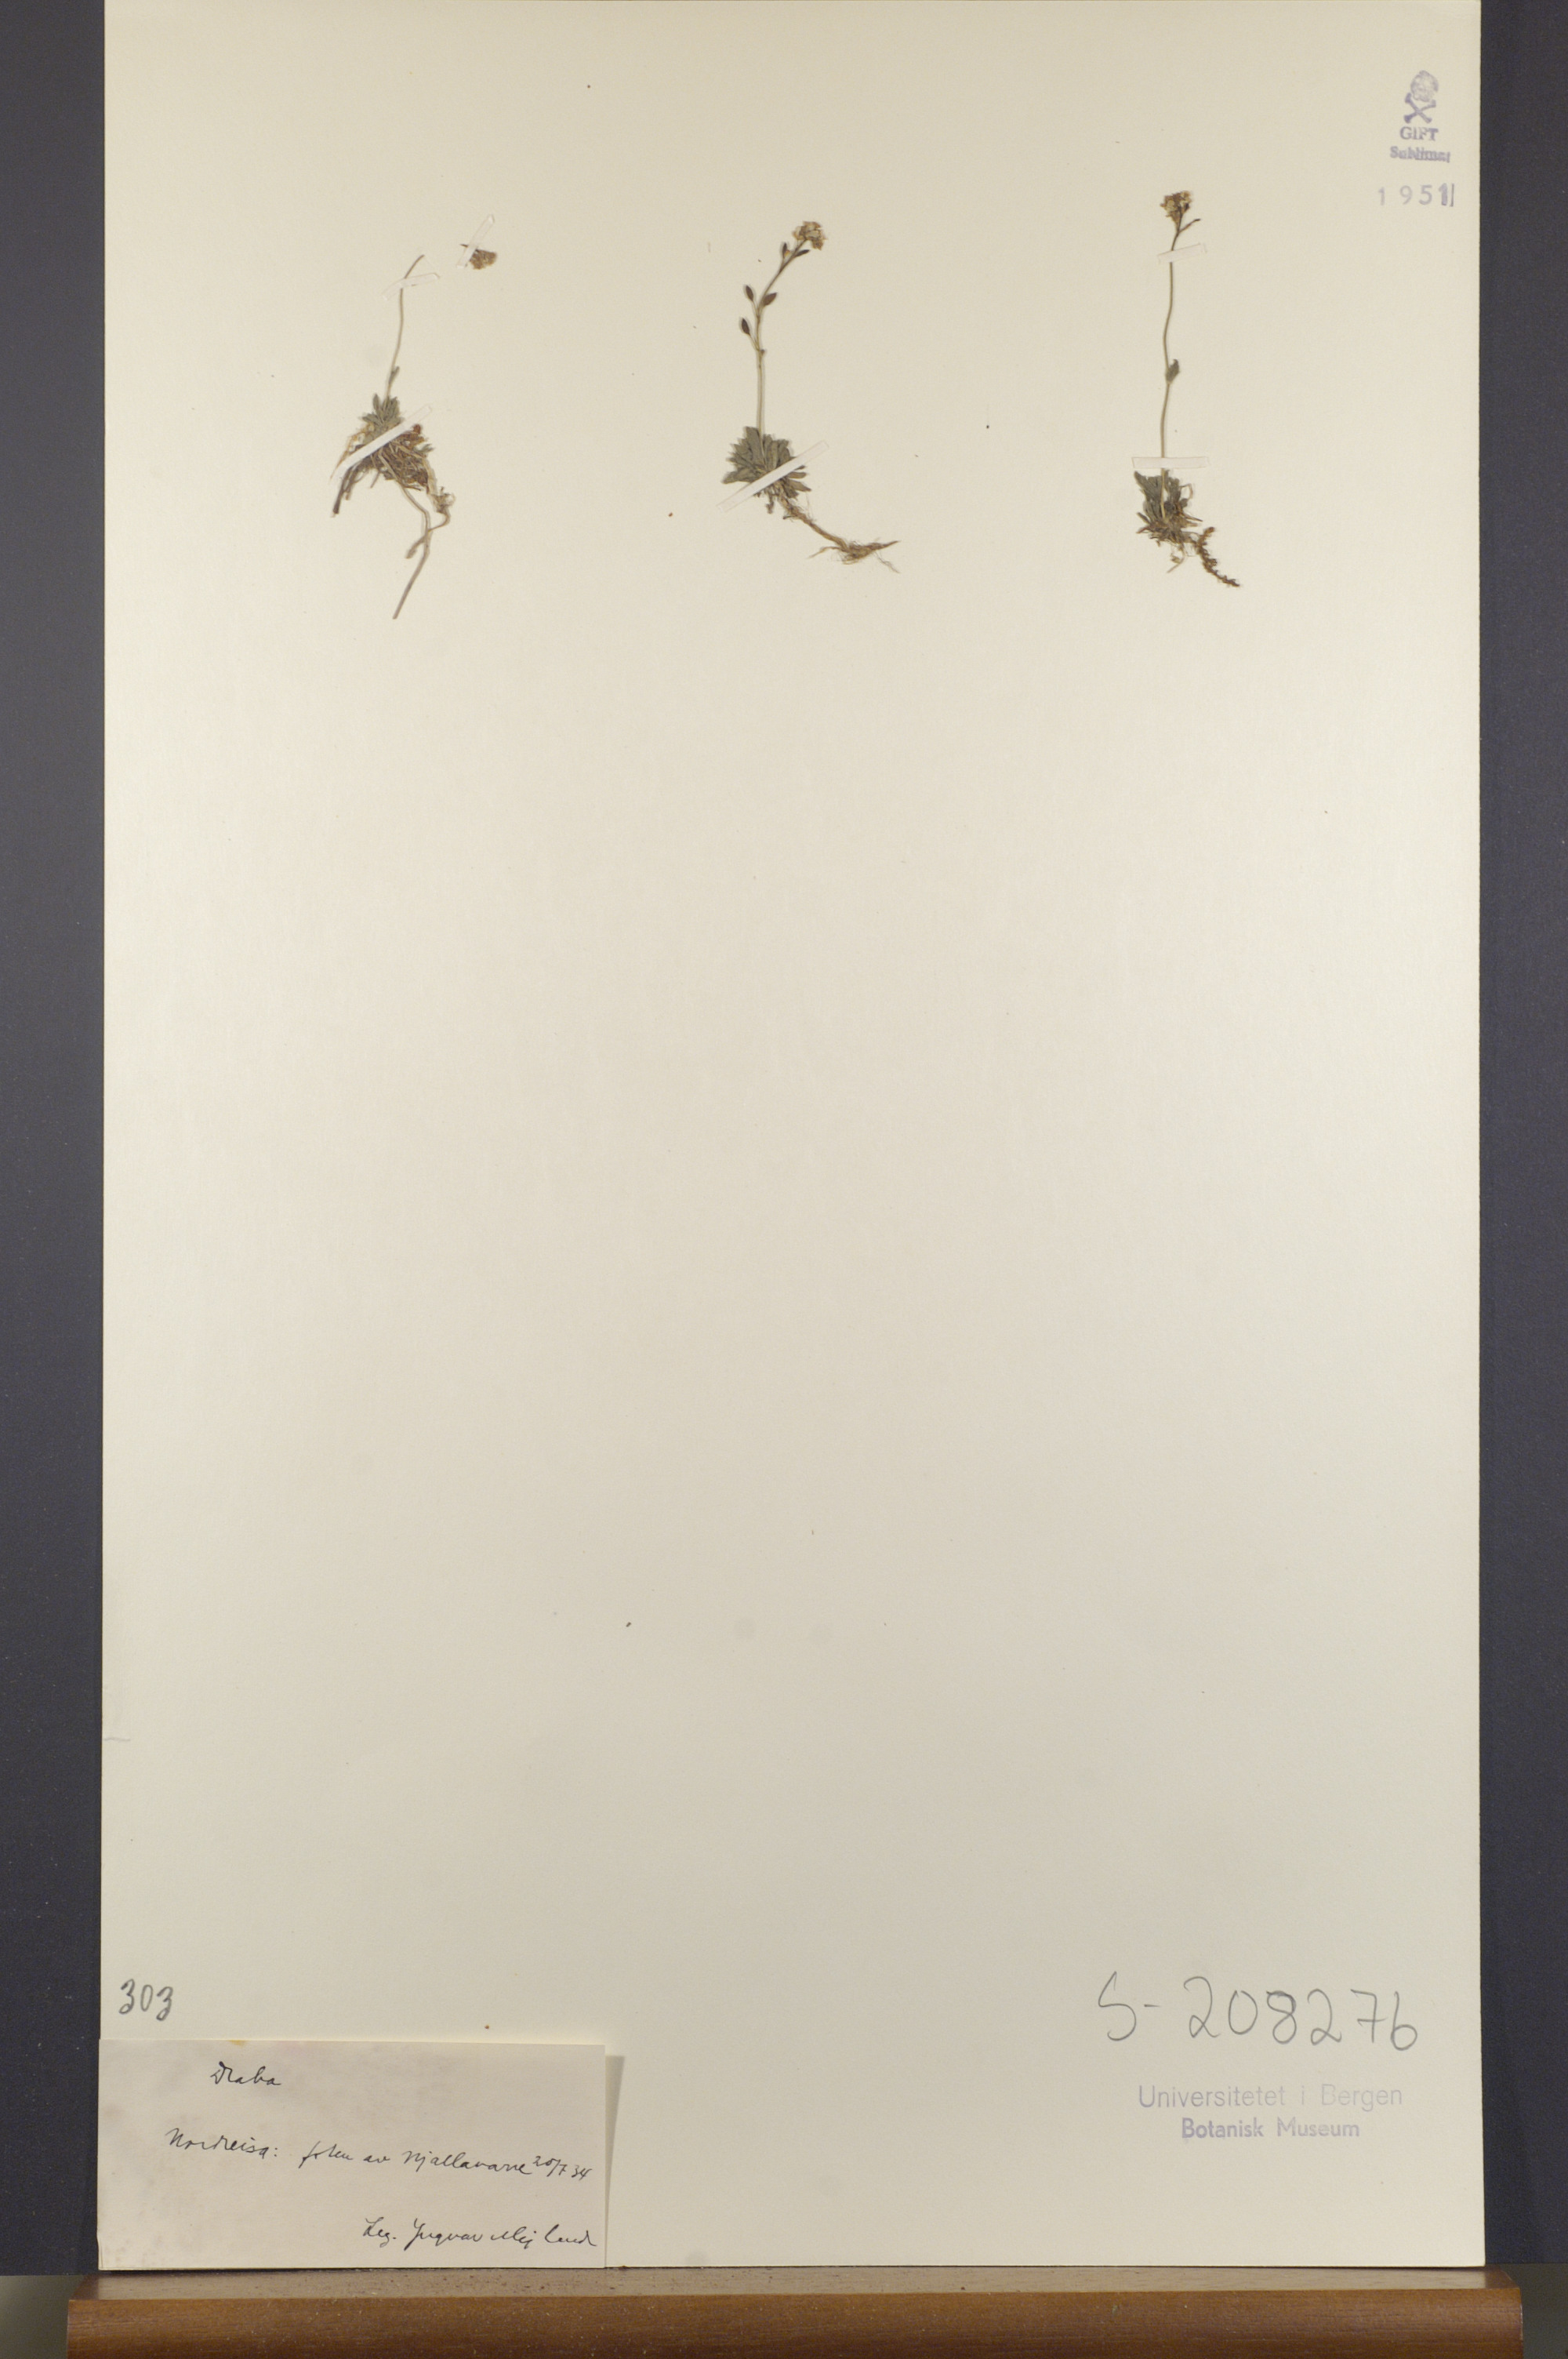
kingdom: Plantae
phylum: Tracheophyta
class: Magnoliopsida
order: Brassicales
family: Brassicaceae
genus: Draba
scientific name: Draba norvegica
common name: Rock whitlowgrass
